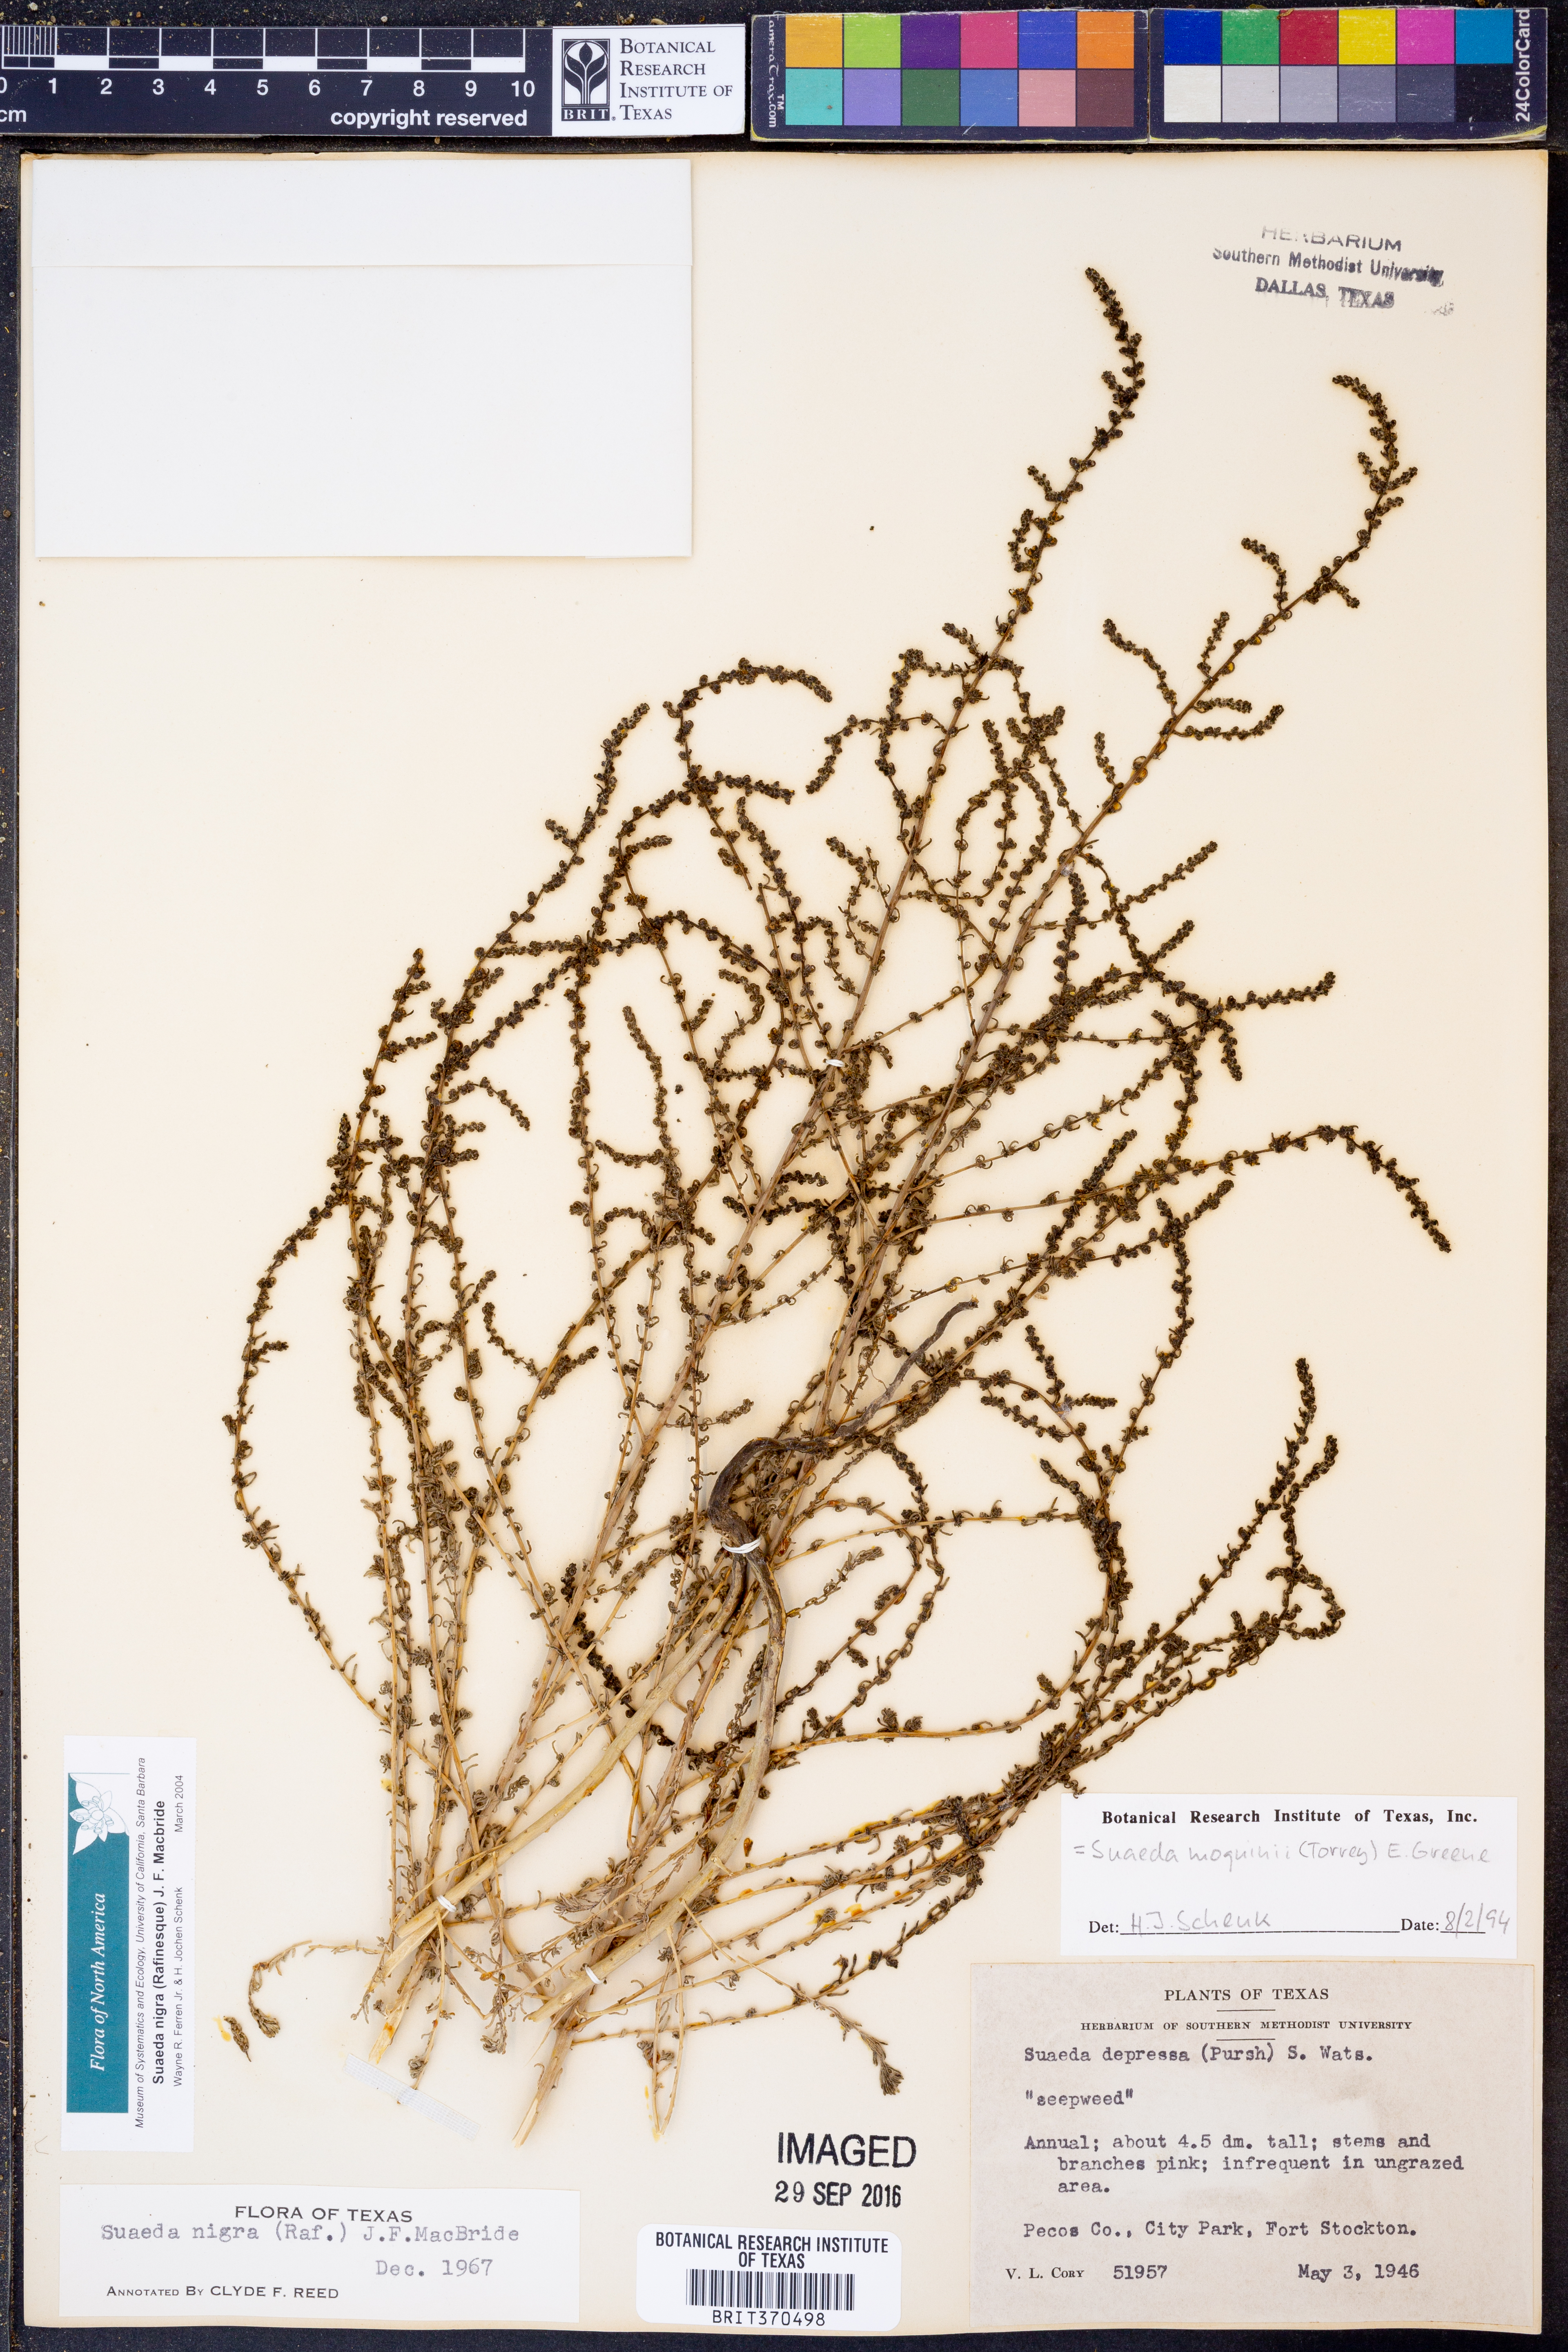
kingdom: Plantae
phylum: Tracheophyta
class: Magnoliopsida
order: Caryophyllales
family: Amaranthaceae
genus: Suaeda
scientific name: Suaeda nigra
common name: Bush seepweed
